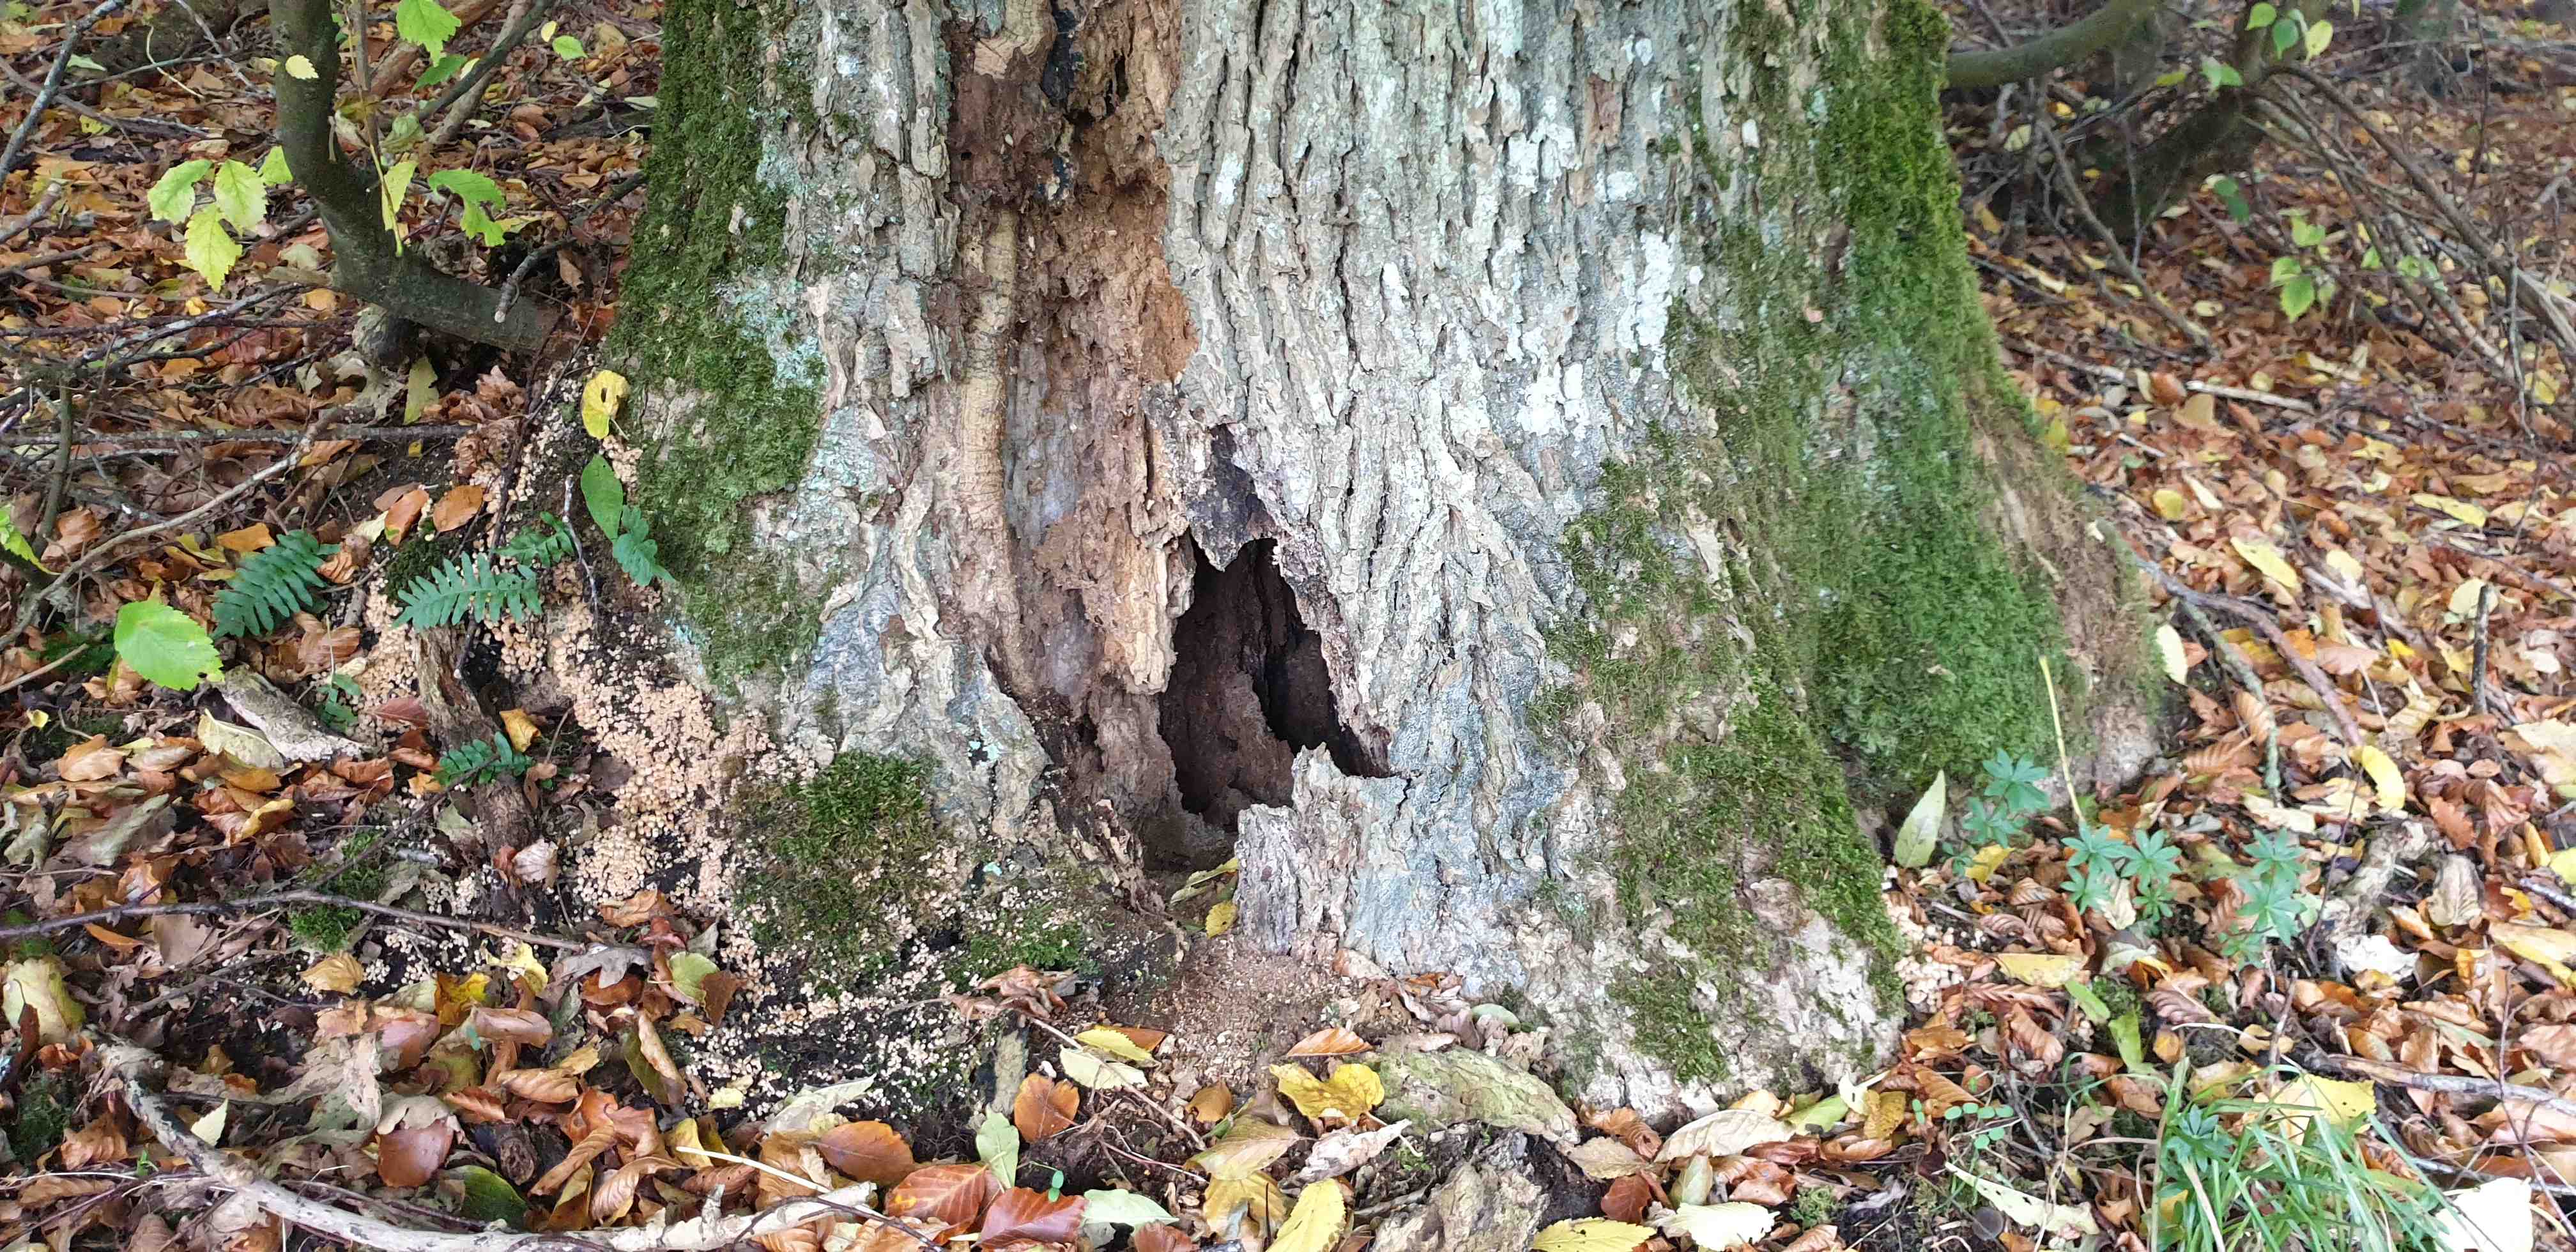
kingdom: Fungi
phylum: Basidiomycota
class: Agaricomycetes
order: Agaricales
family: Psathyrellaceae
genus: Coprinellus
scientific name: Coprinellus disseminatus
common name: bredsået blækhat
